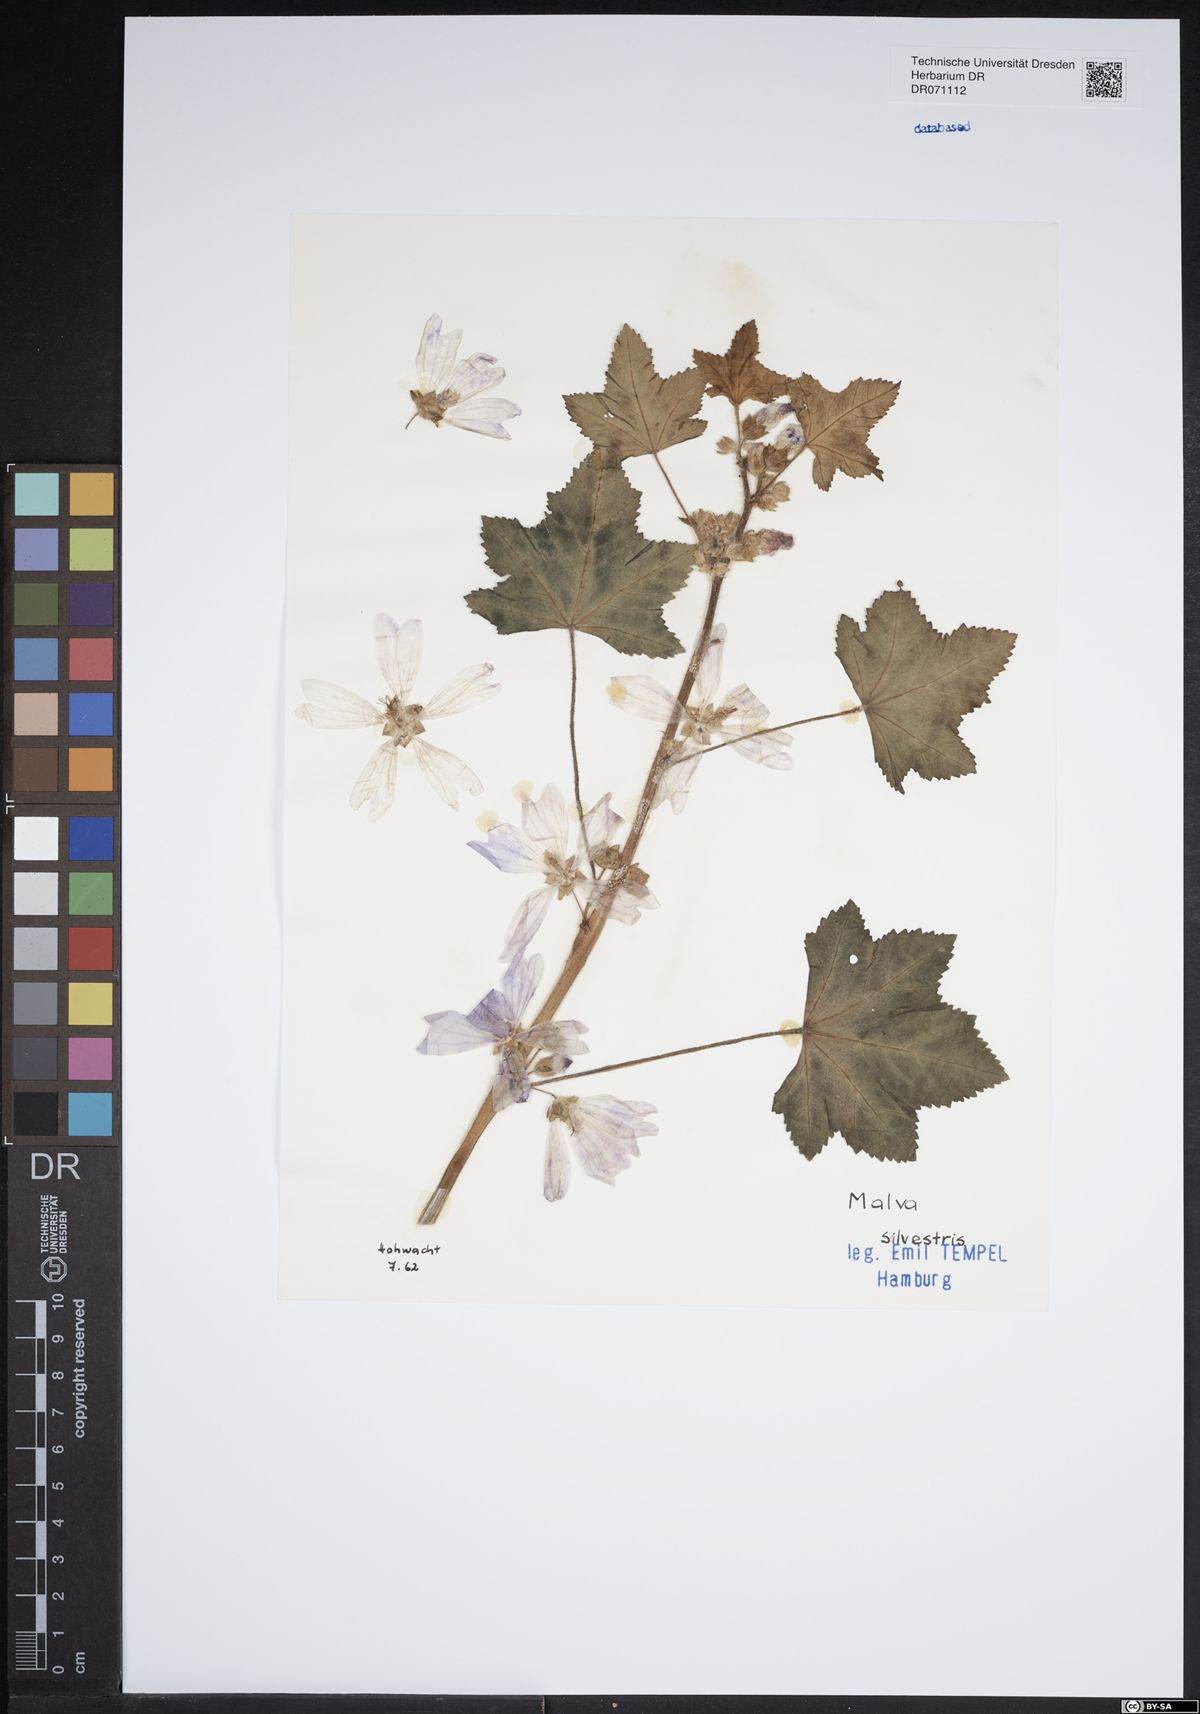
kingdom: Plantae
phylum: Tracheophyta
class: Magnoliopsida
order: Malvales
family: Malvaceae
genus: Malva
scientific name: Malva sylvestris
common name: Common mallow
